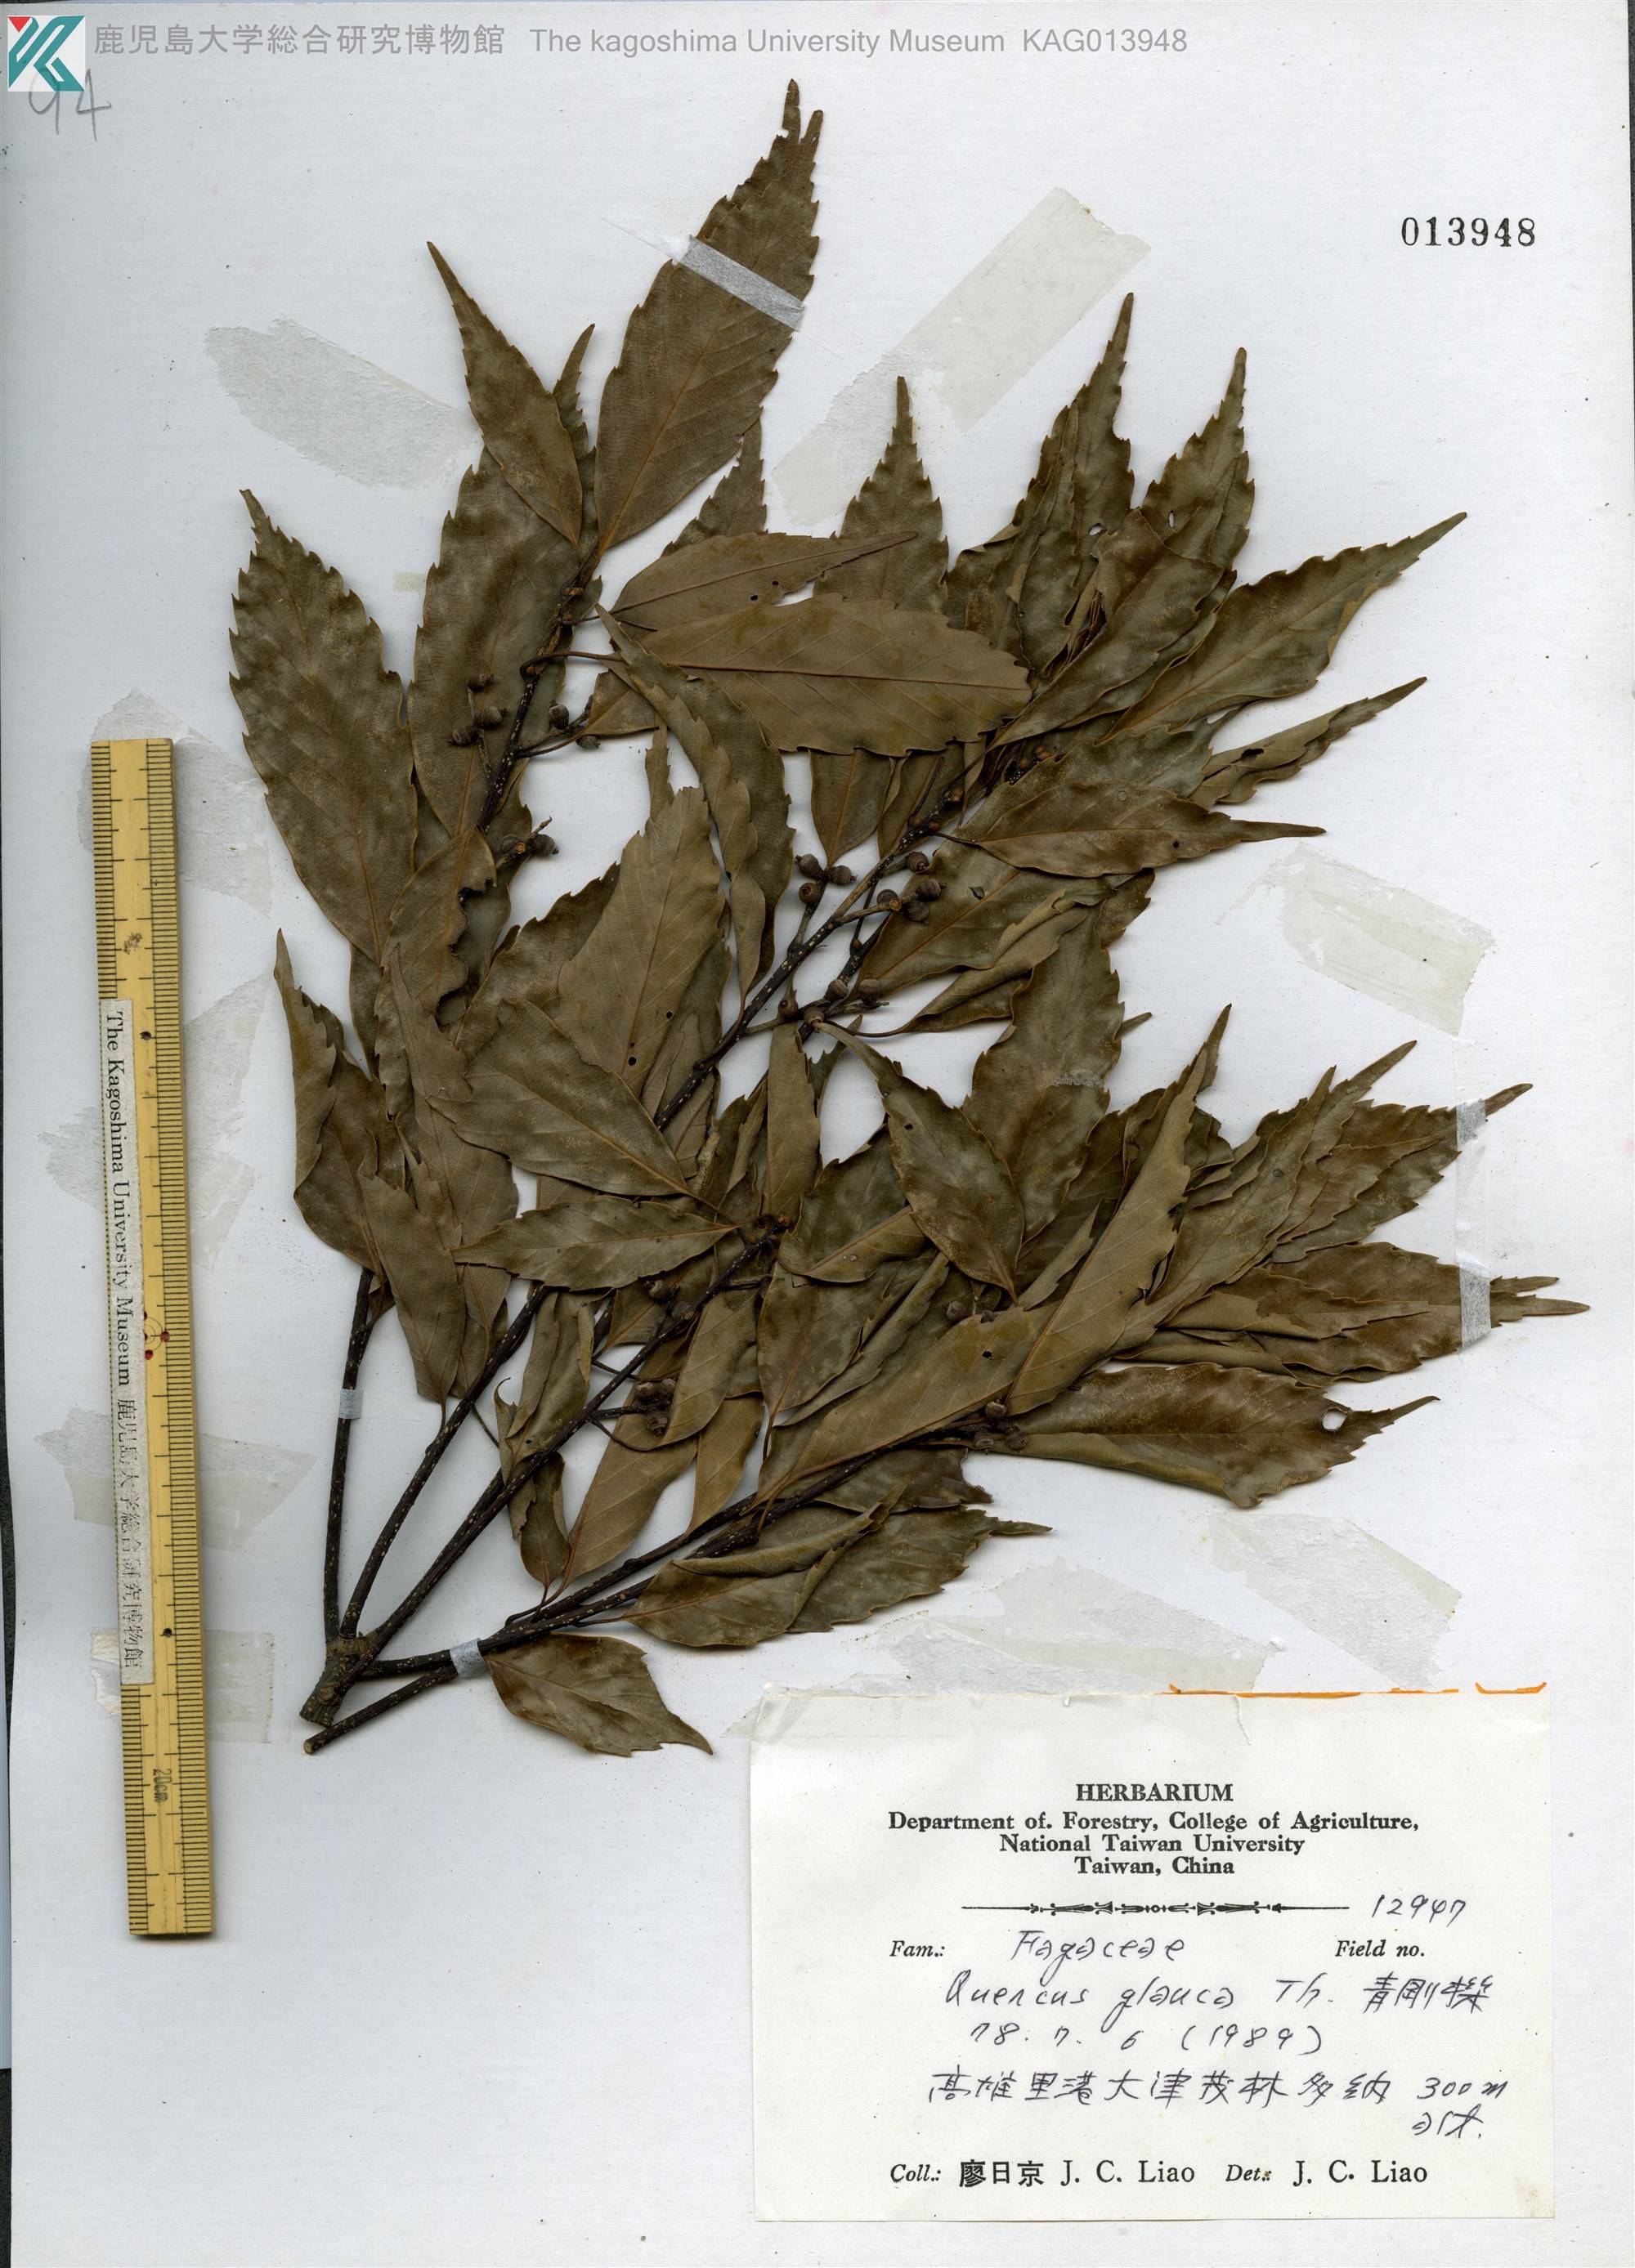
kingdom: Plantae
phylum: Tracheophyta
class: Magnoliopsida
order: Fagales
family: Fagaceae
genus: Quercus
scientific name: Quercus glauca
